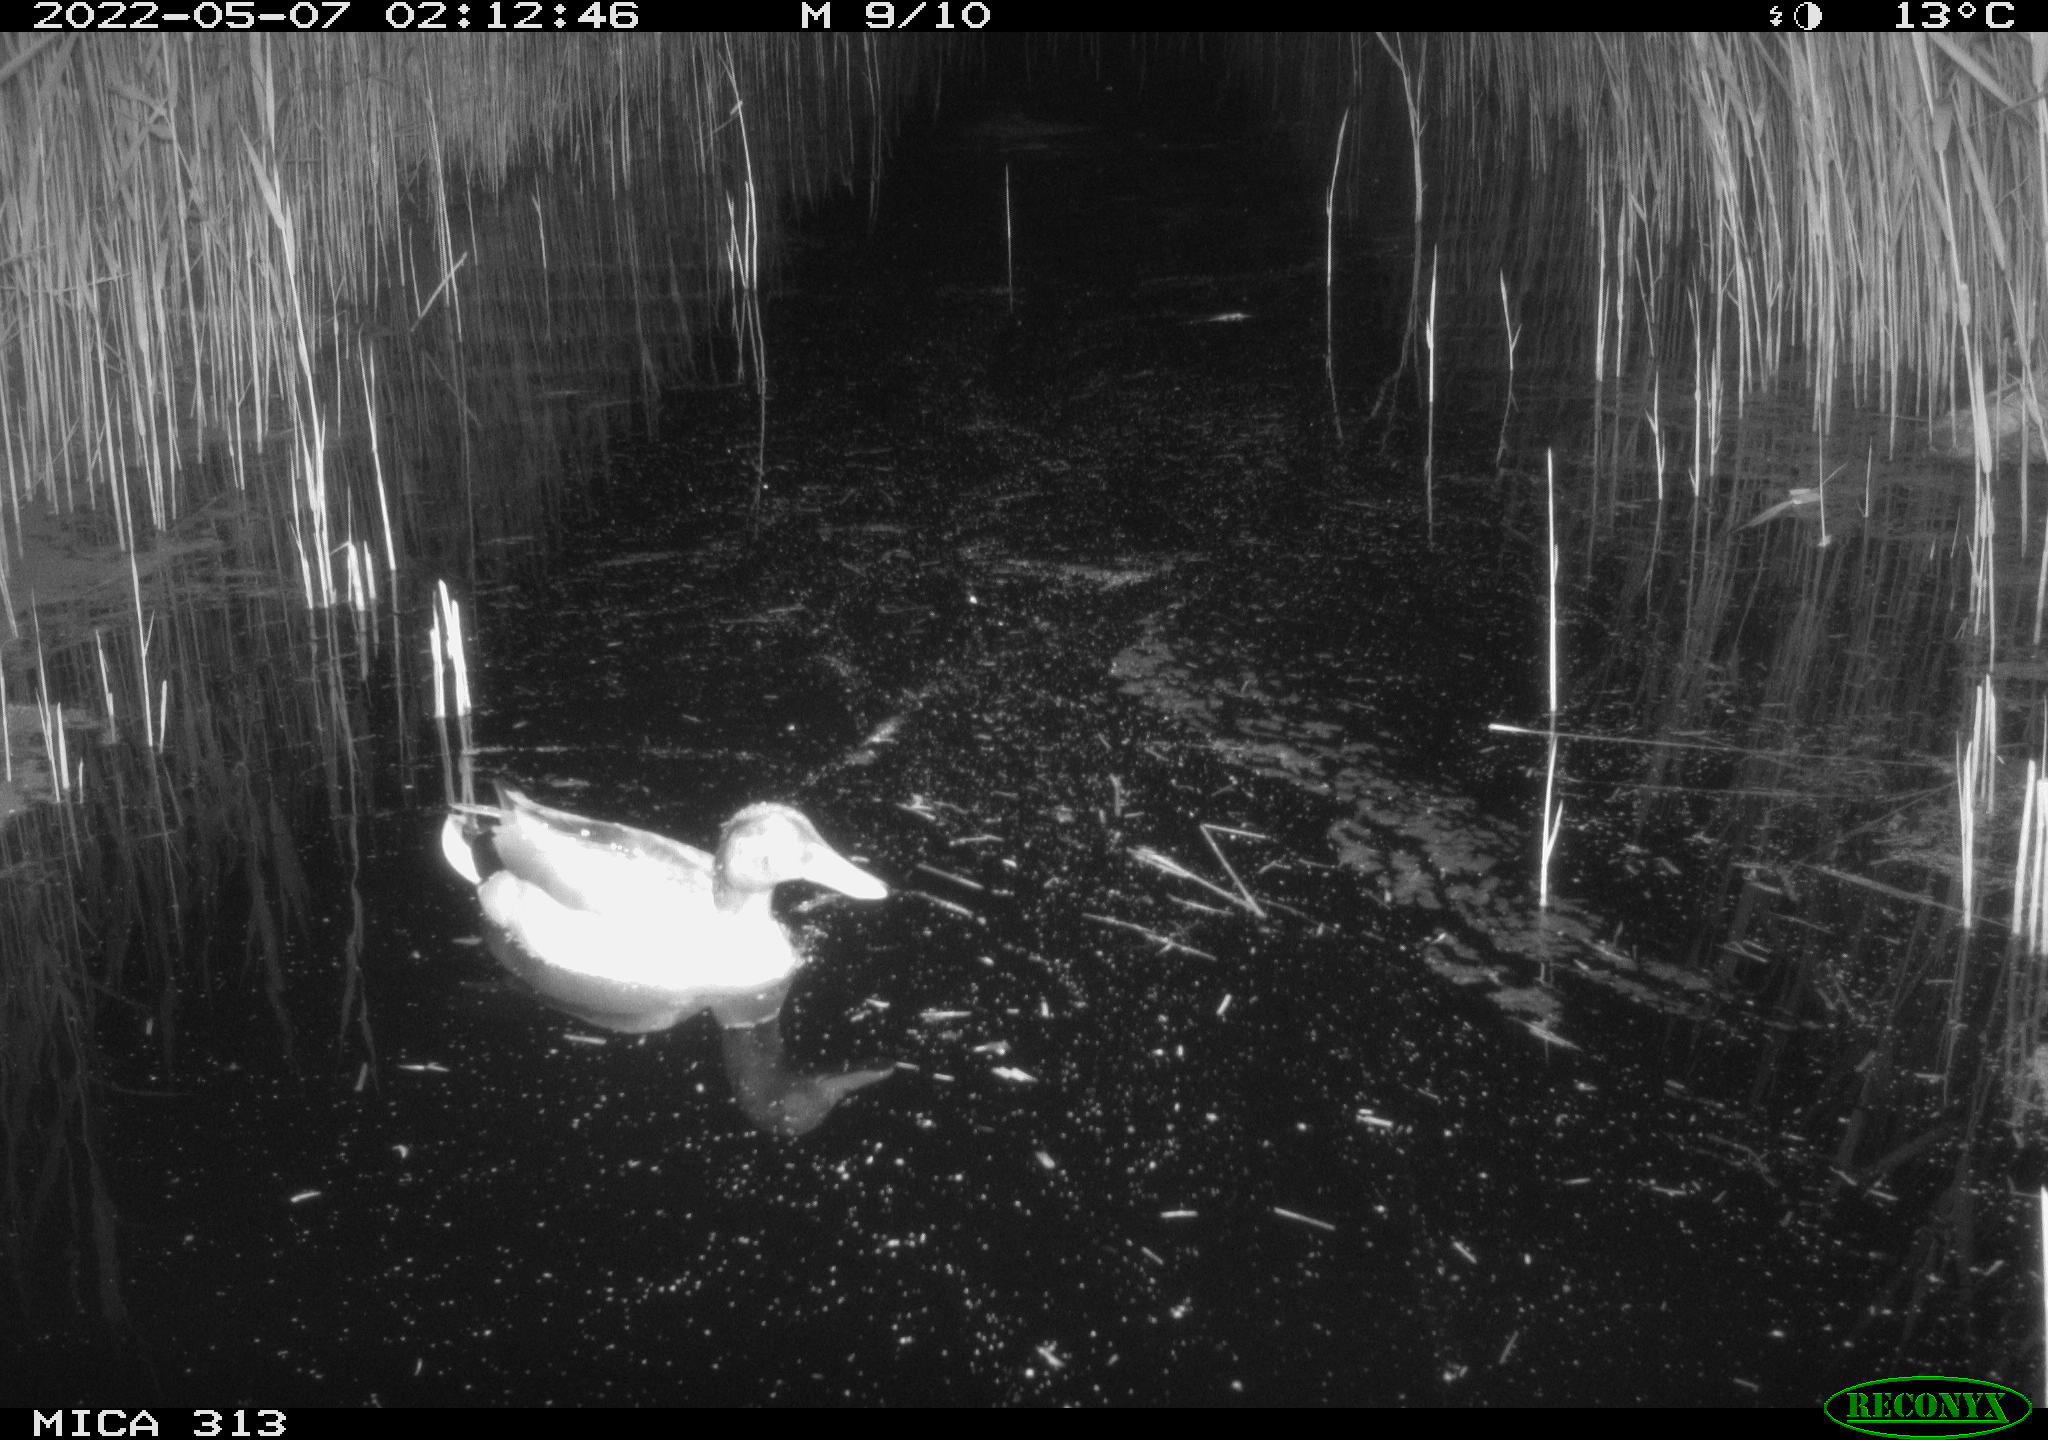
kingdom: Animalia
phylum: Chordata
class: Aves
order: Anseriformes
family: Anatidae
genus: Mareca
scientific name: Mareca strepera
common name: Gadwall
